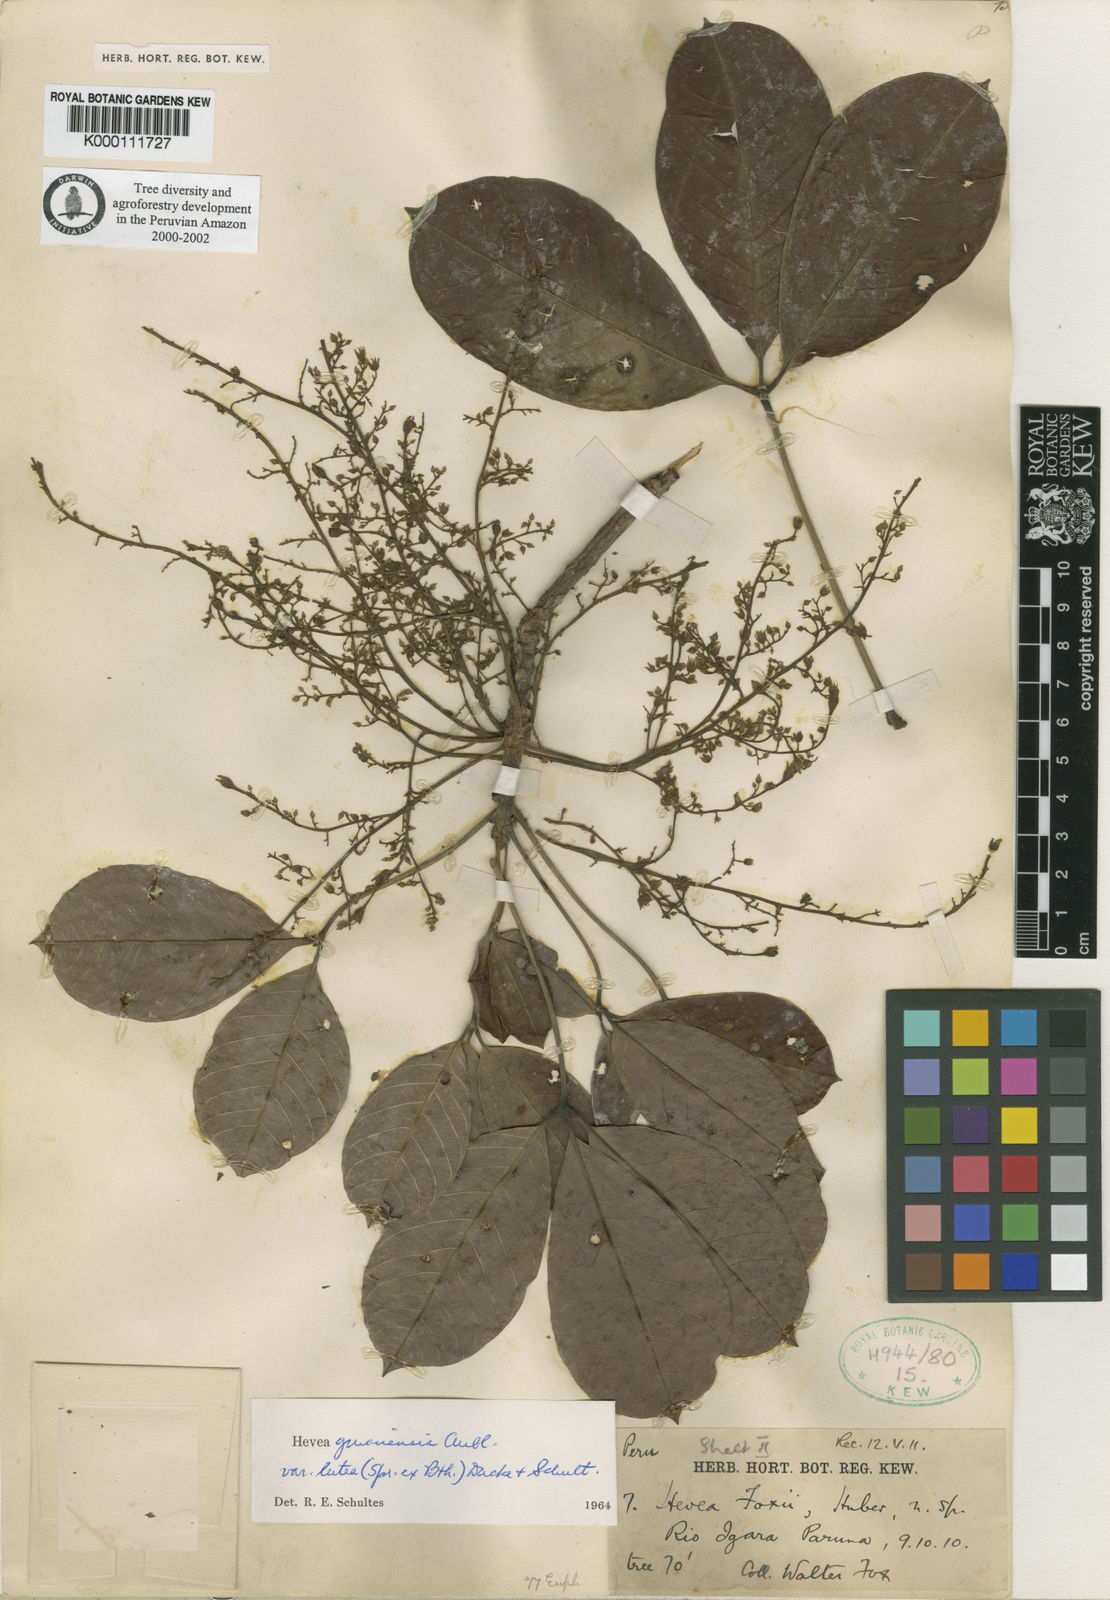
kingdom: Plantae
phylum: Tracheophyta
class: Magnoliopsida
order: Malpighiales
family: Euphorbiaceae
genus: Hevea
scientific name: Hevea guianensis
